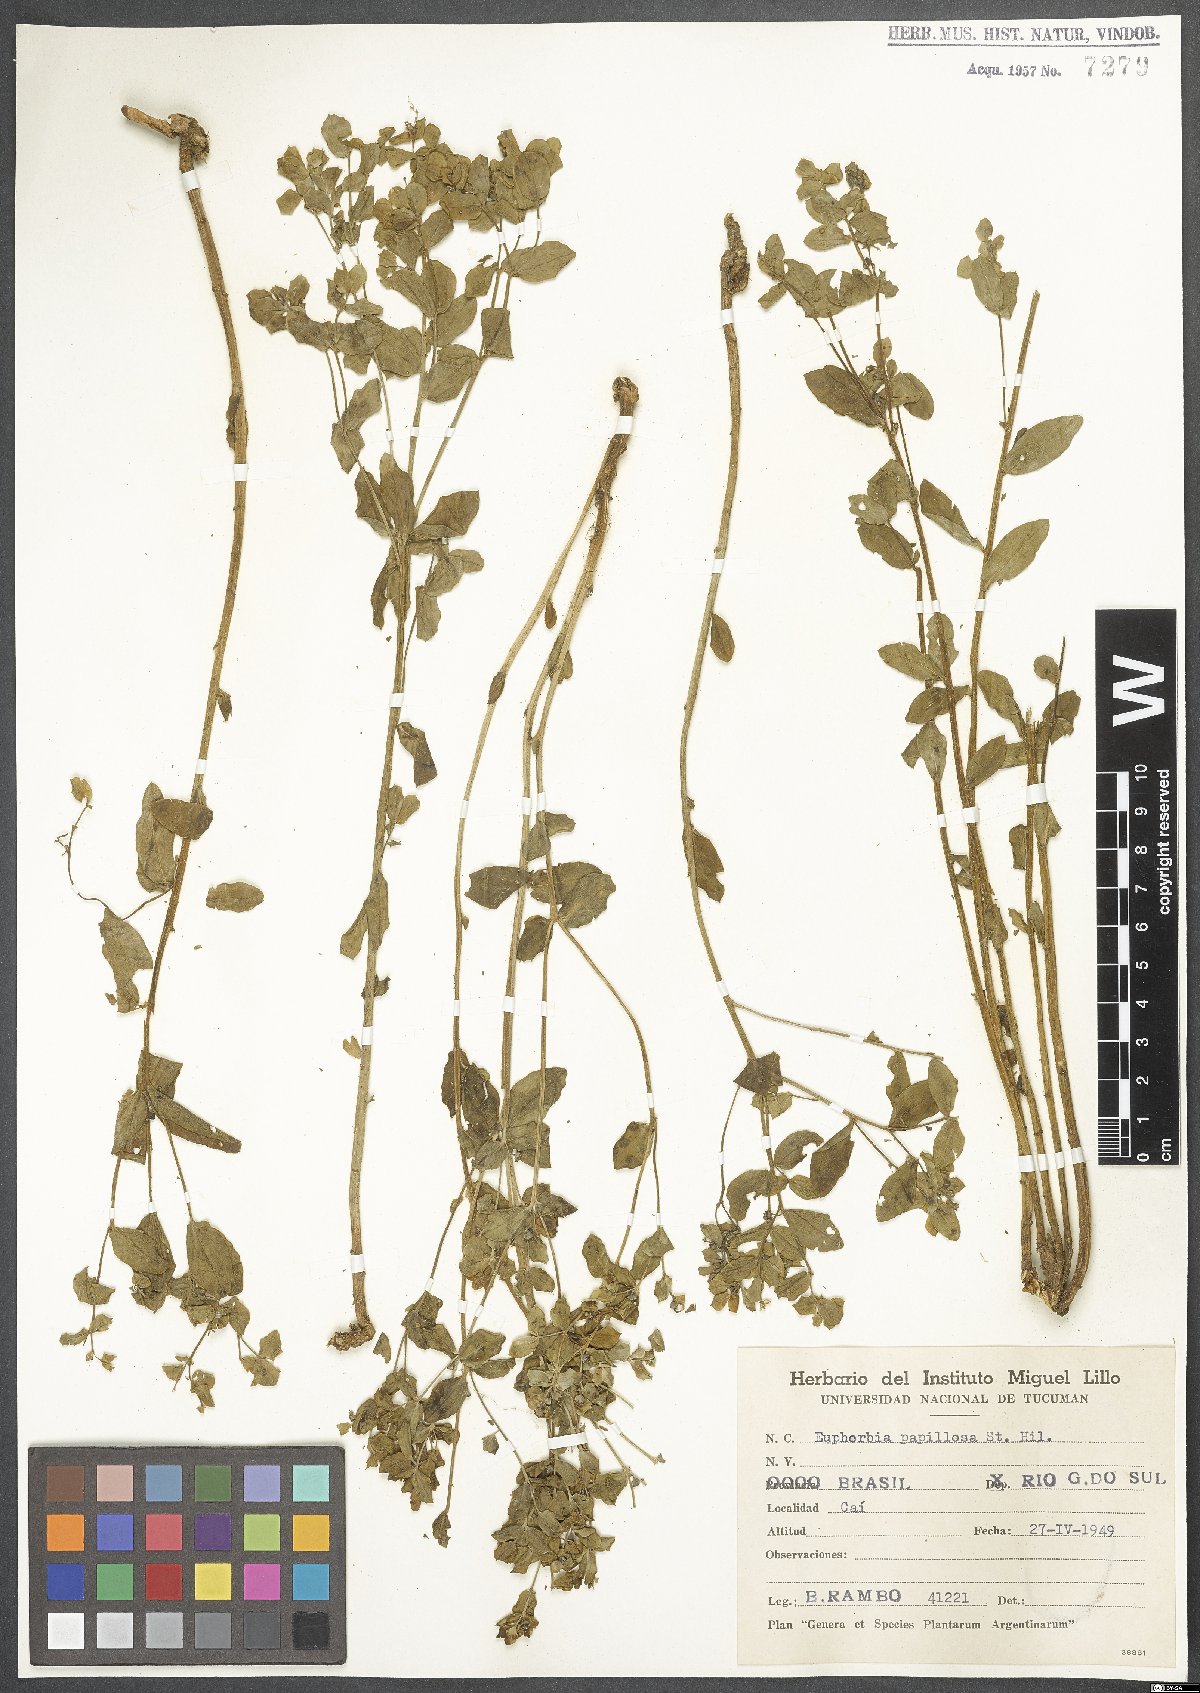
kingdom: Plantae
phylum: Tracheophyta
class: Magnoliopsida
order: Malpighiales
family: Euphorbiaceae
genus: Euphorbia
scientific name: Euphorbia papillosa
